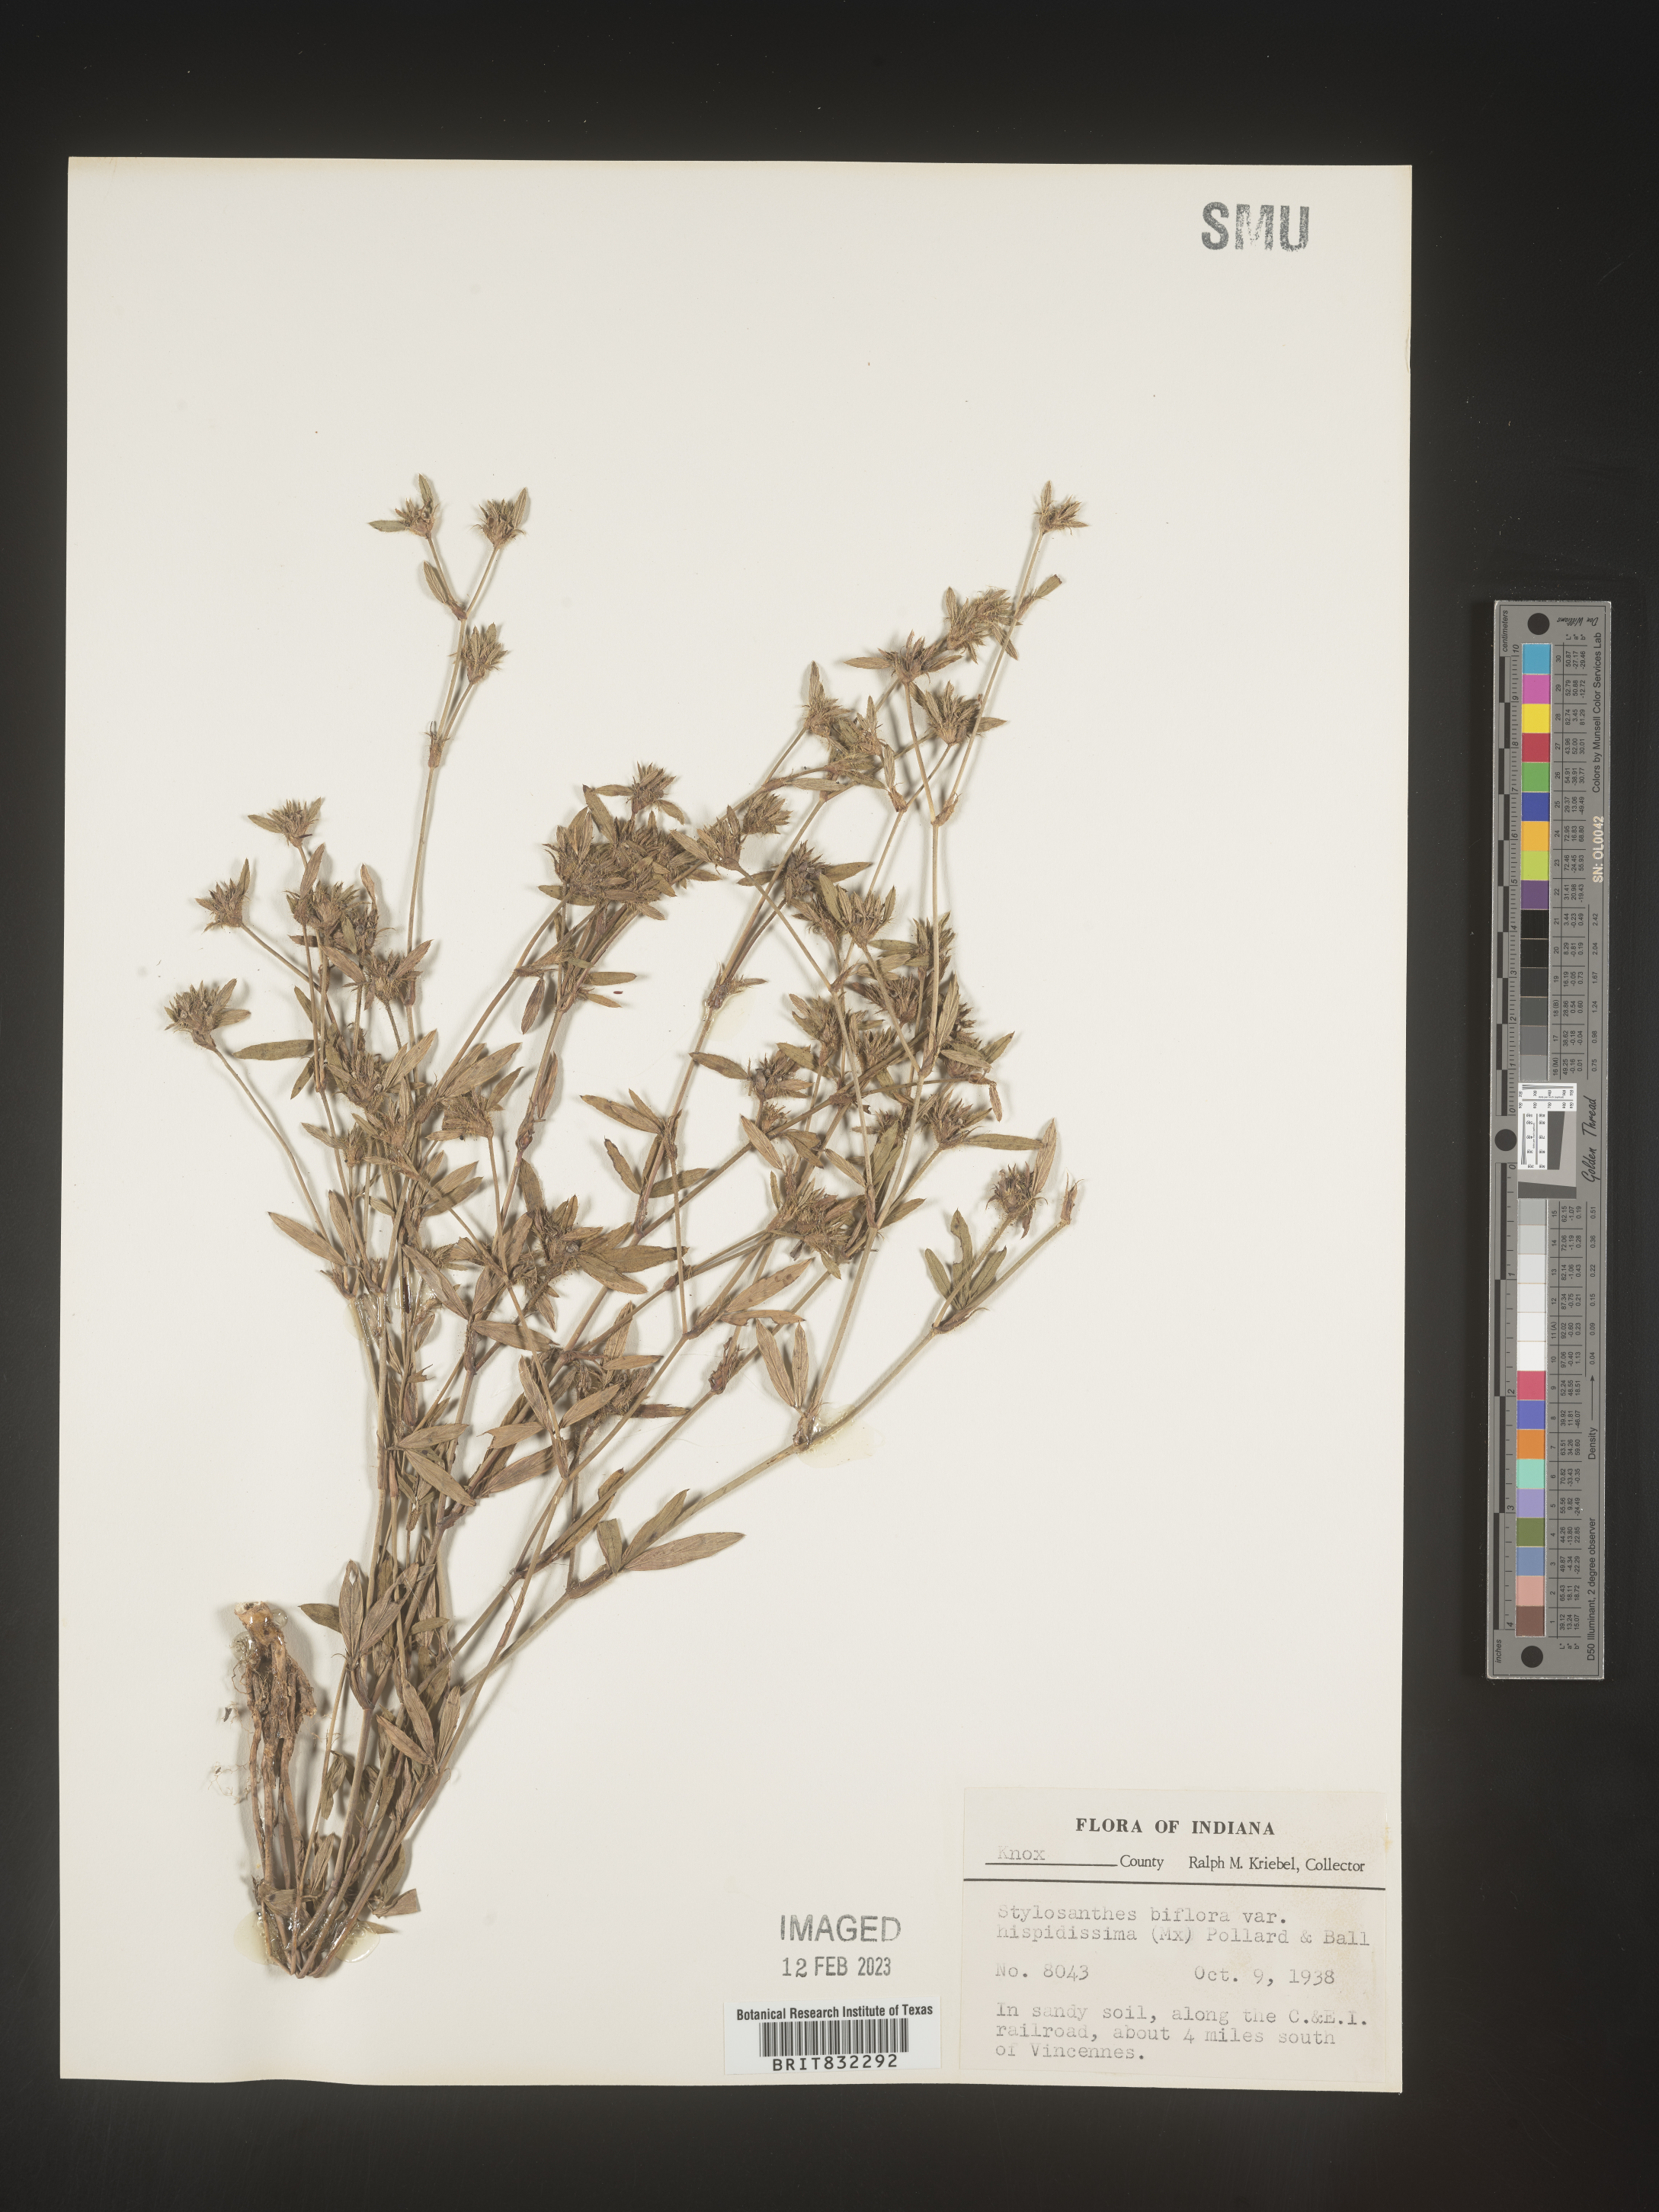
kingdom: Plantae
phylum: Tracheophyta
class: Magnoliopsida
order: Fabales
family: Fabaceae
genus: Stylosanthes
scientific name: Stylosanthes biflora
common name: Two-flower pencil-flower
